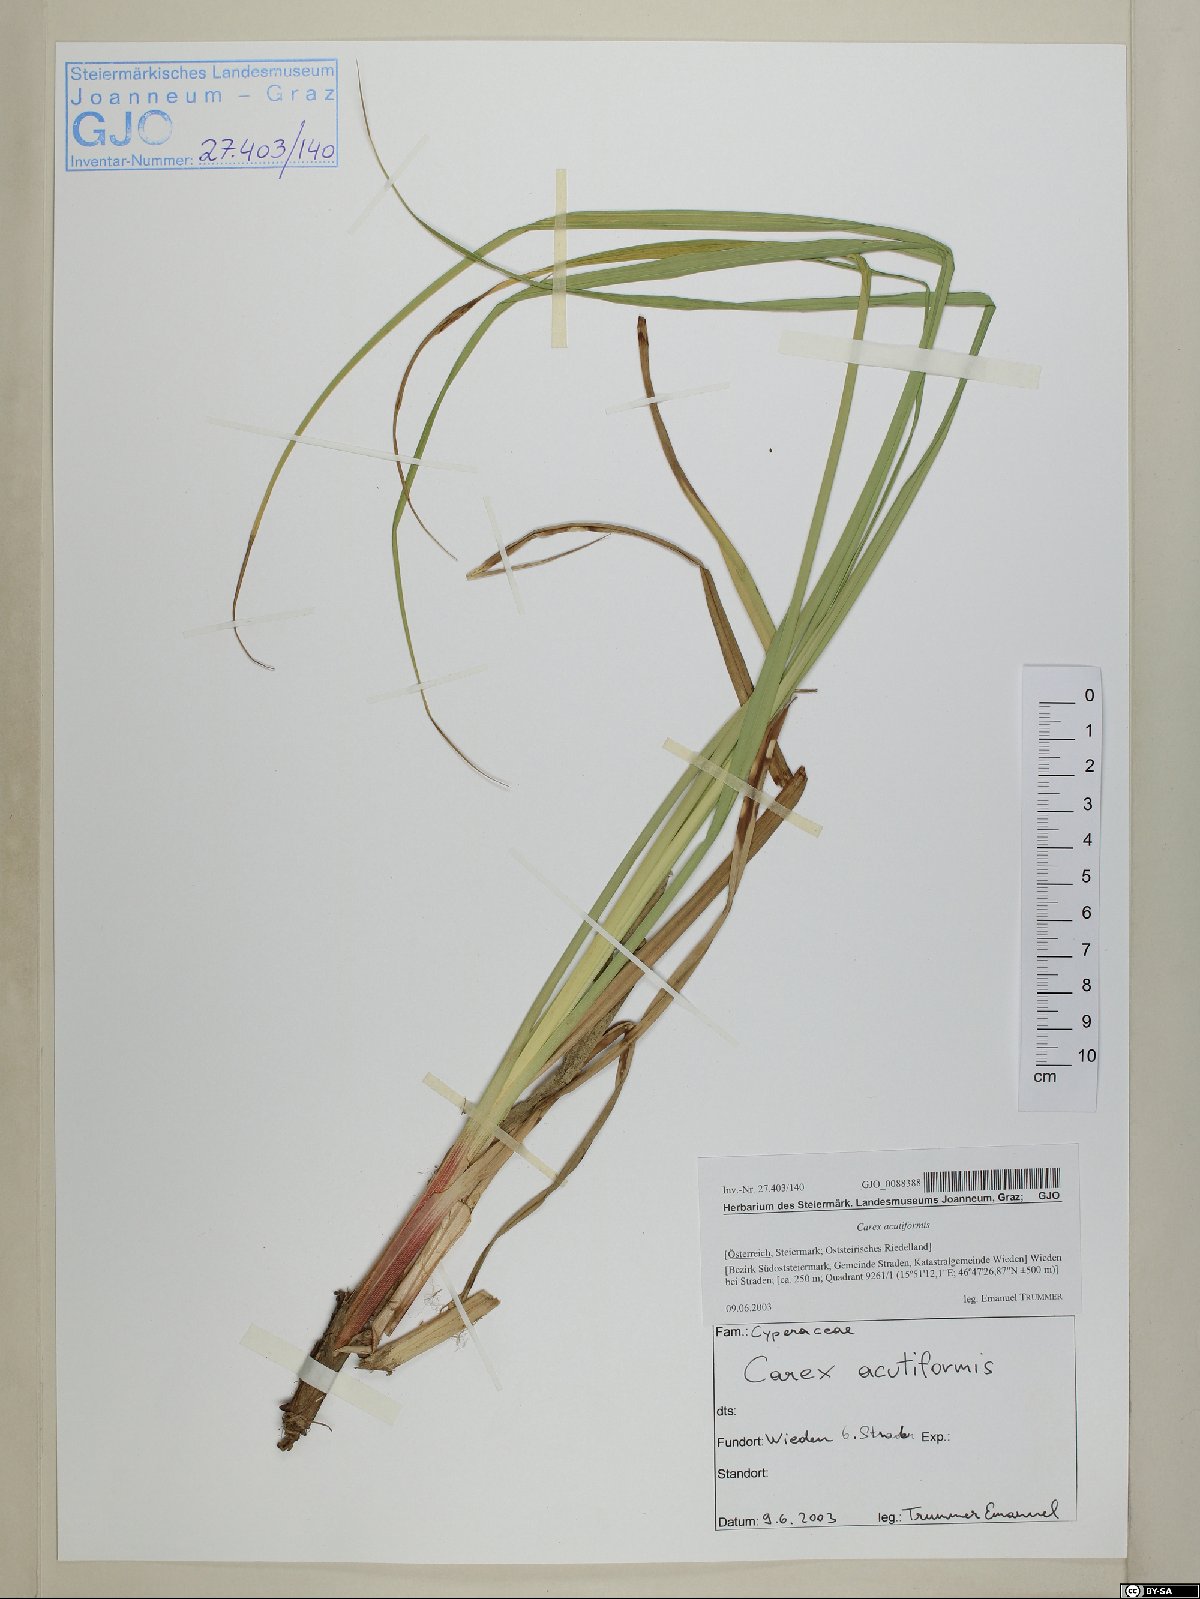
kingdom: Plantae
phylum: Tracheophyta
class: Liliopsida
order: Poales
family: Cyperaceae
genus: Carex
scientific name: Carex acutiformis
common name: Lesser pond-sedge
